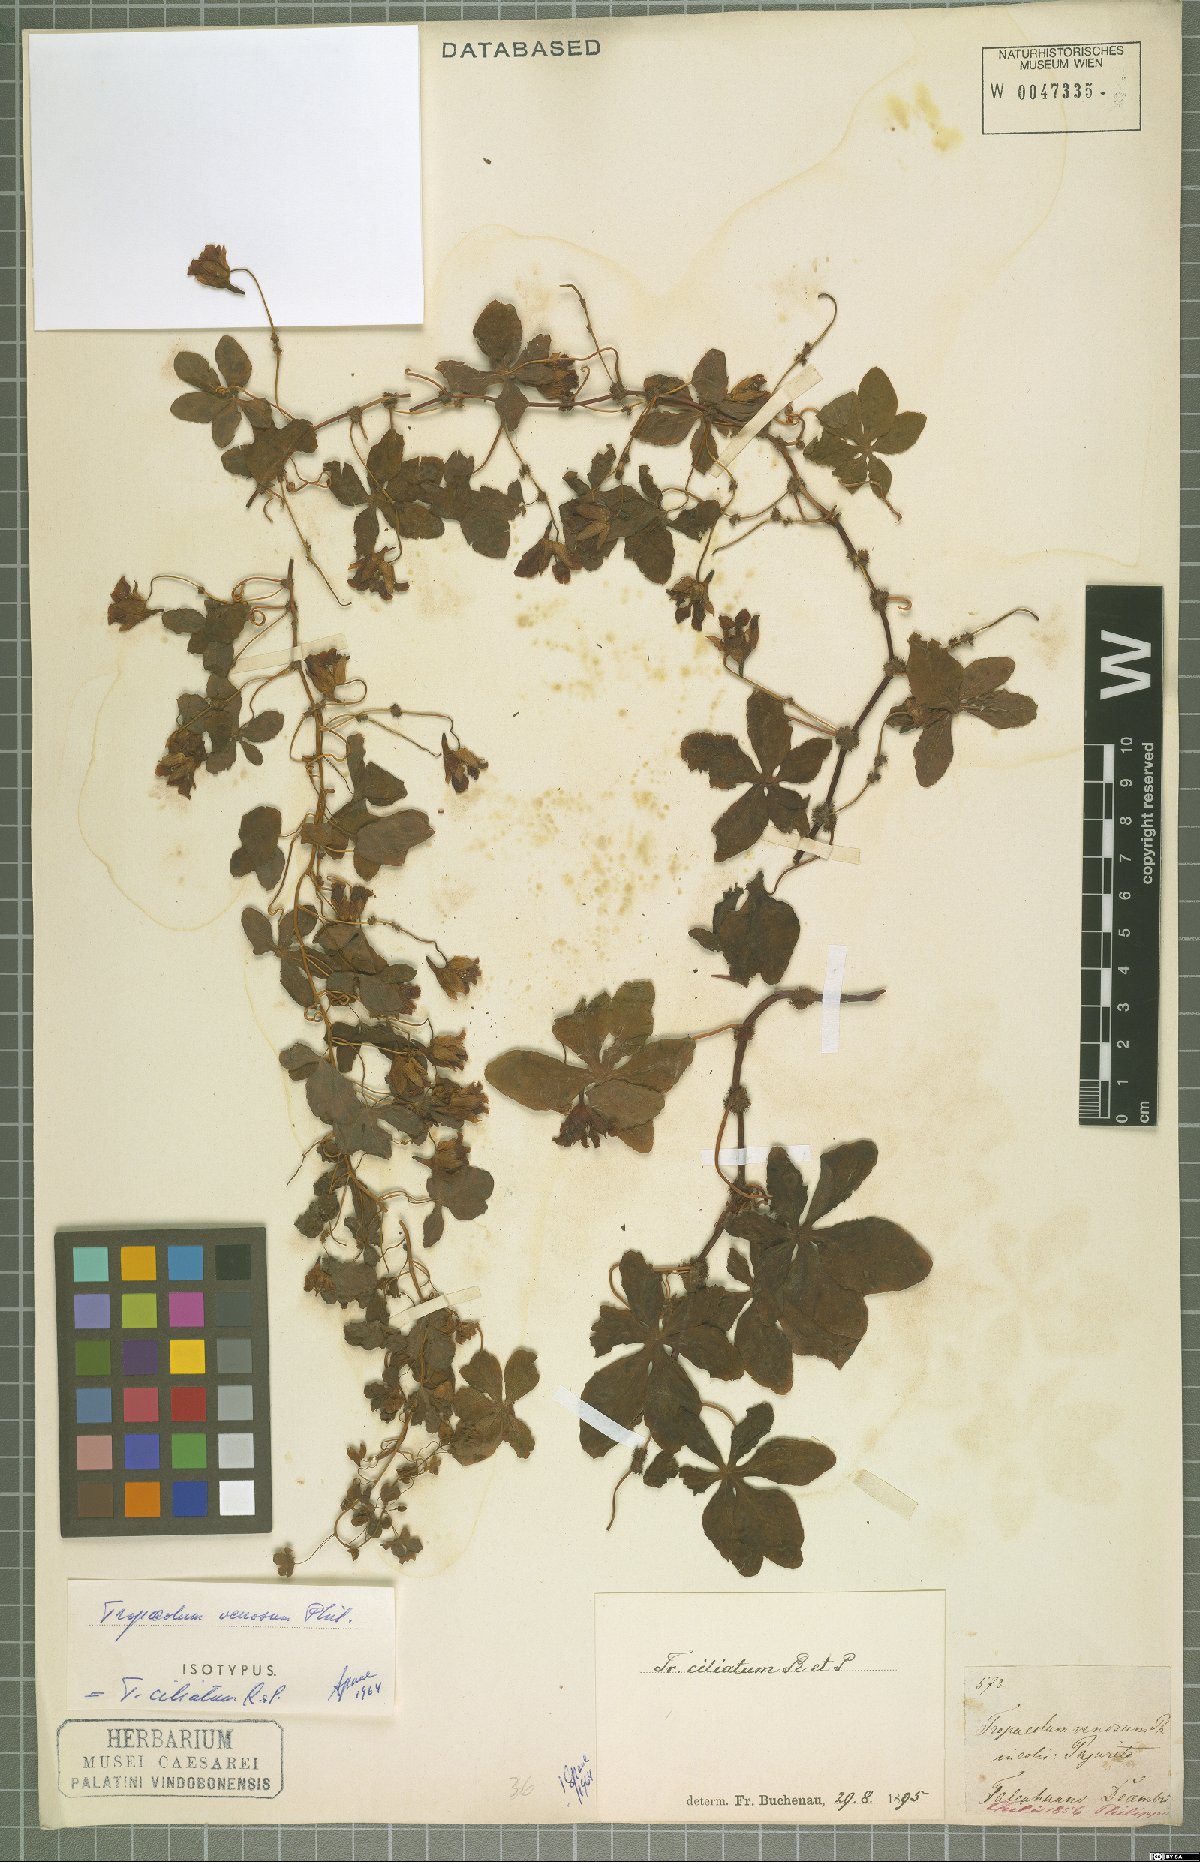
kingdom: Plantae
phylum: Tracheophyta
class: Magnoliopsida
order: Brassicales
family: Tropaeolaceae
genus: Tropaeolum
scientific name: Tropaeolum ciliatum
